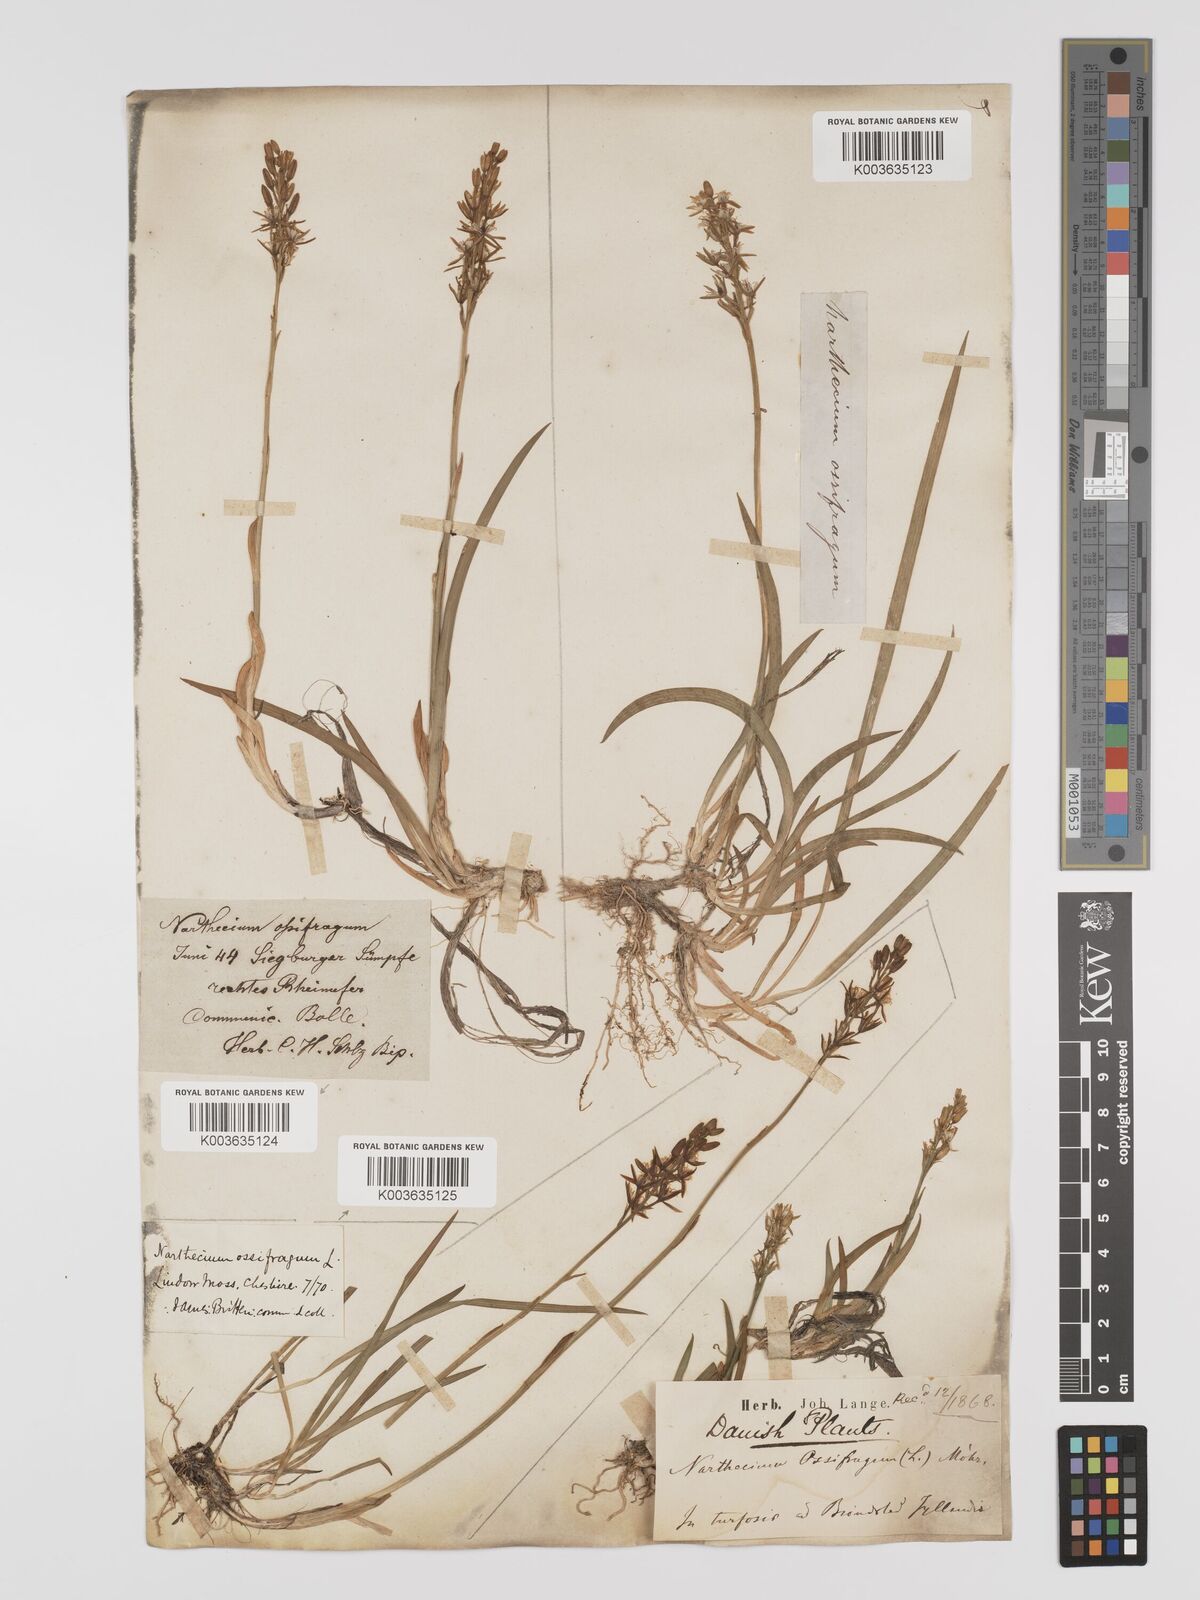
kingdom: Plantae
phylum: Tracheophyta
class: Liliopsida
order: Dioscoreales
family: Nartheciaceae
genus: Narthecium
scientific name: Narthecium ossifragum
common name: Bog asphodel
